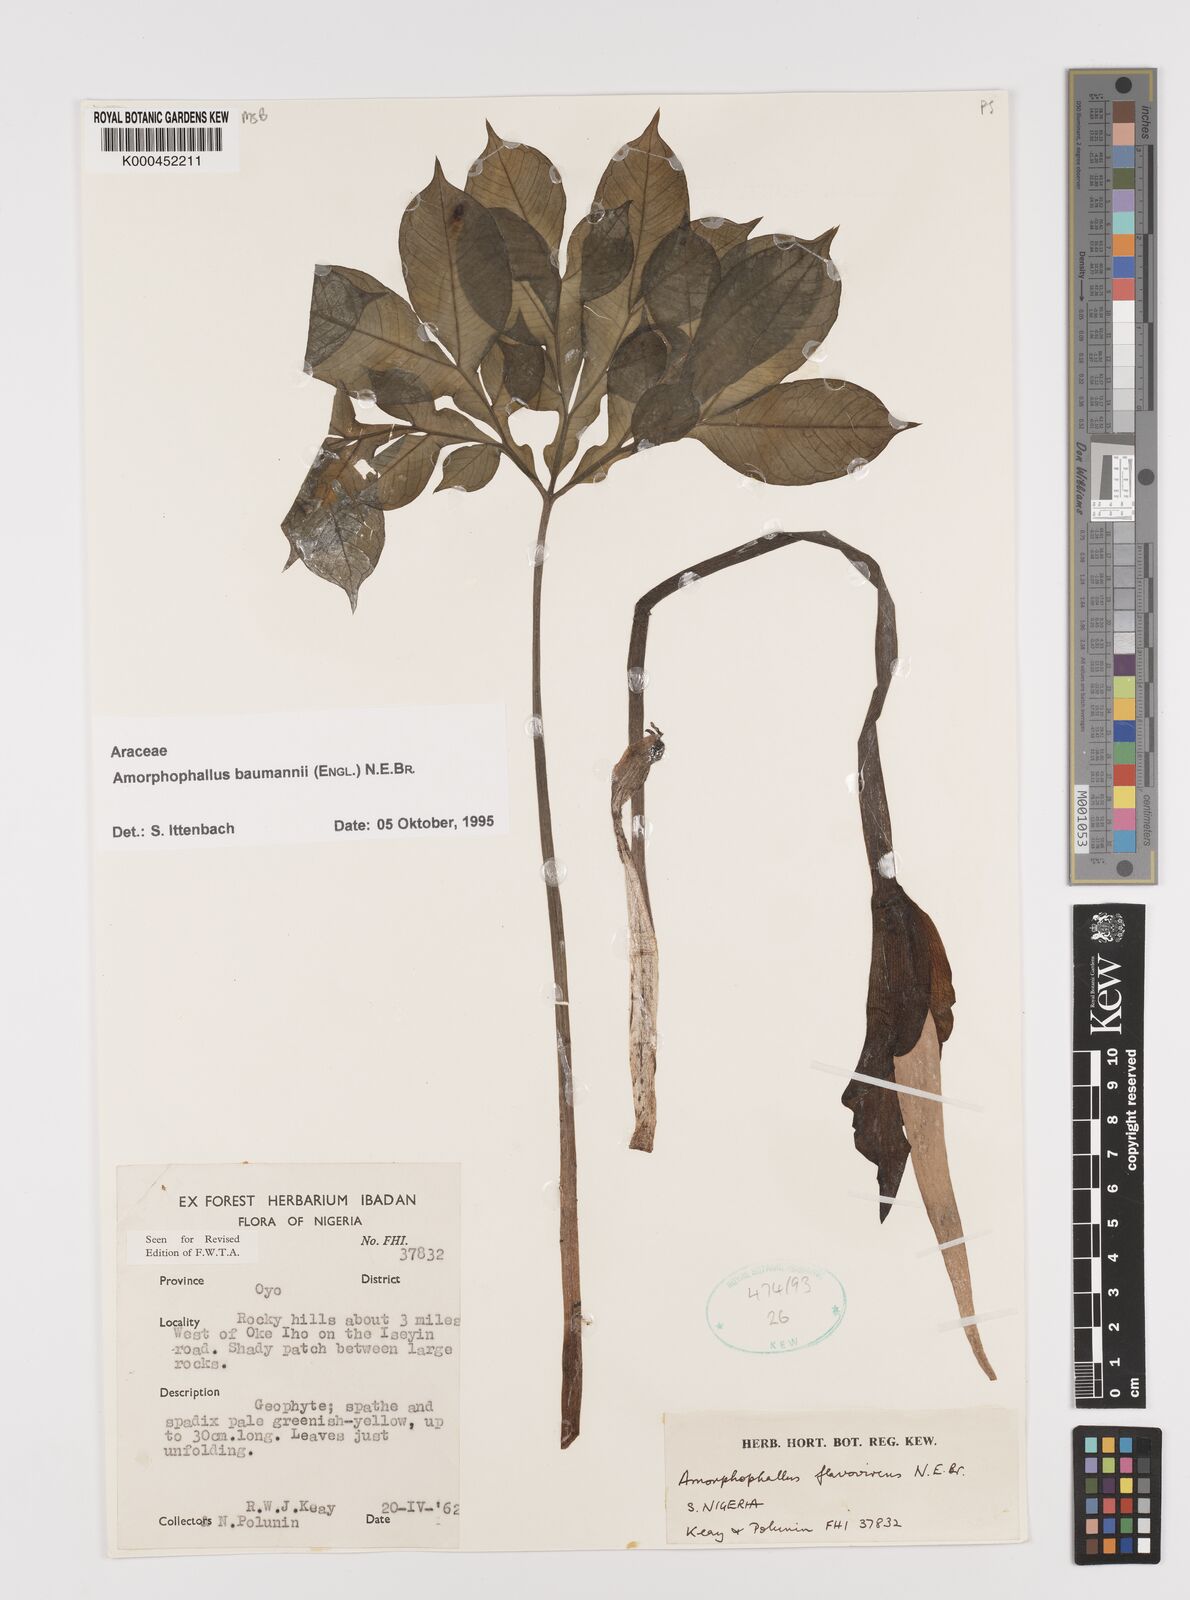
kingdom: Plantae
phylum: Tracheophyta
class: Liliopsida
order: Alismatales
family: Araceae
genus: Amorphophallus
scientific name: Amorphophallus baumannii
